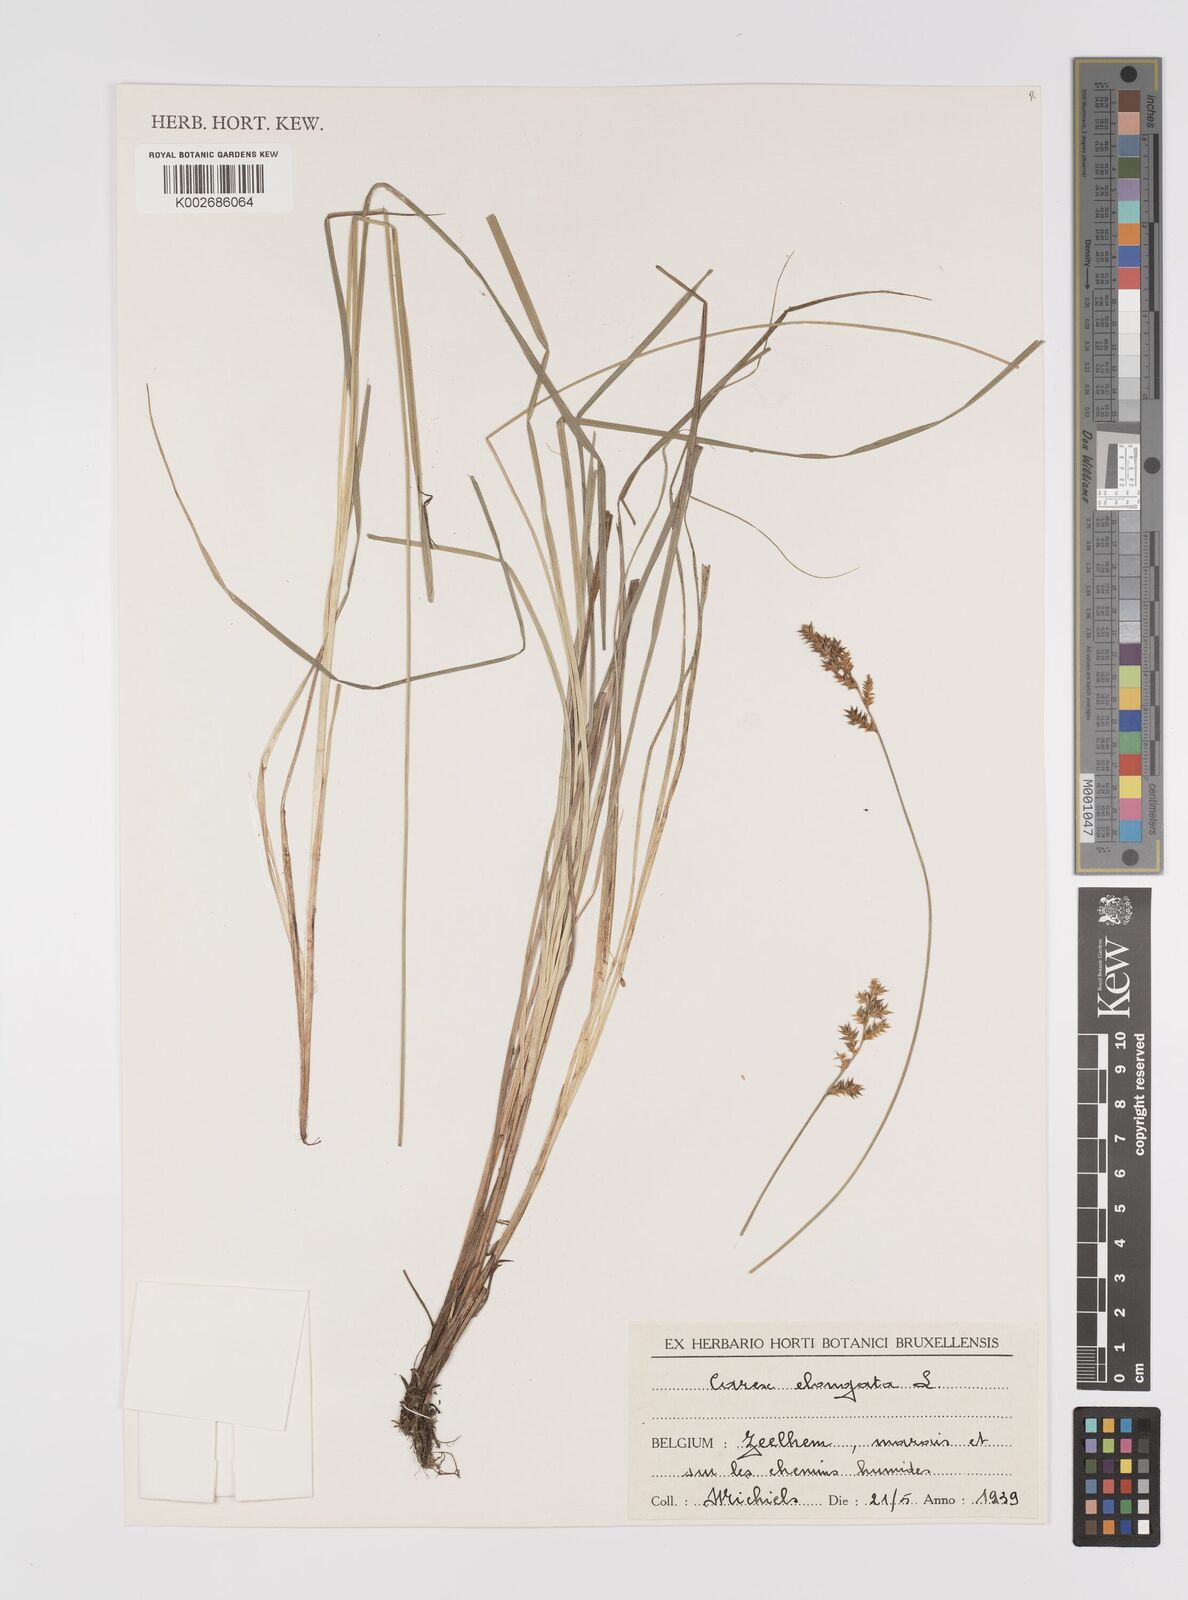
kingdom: Plantae
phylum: Tracheophyta
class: Liliopsida
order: Poales
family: Cyperaceae
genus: Carex
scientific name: Carex elongata
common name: Elongated sedge
